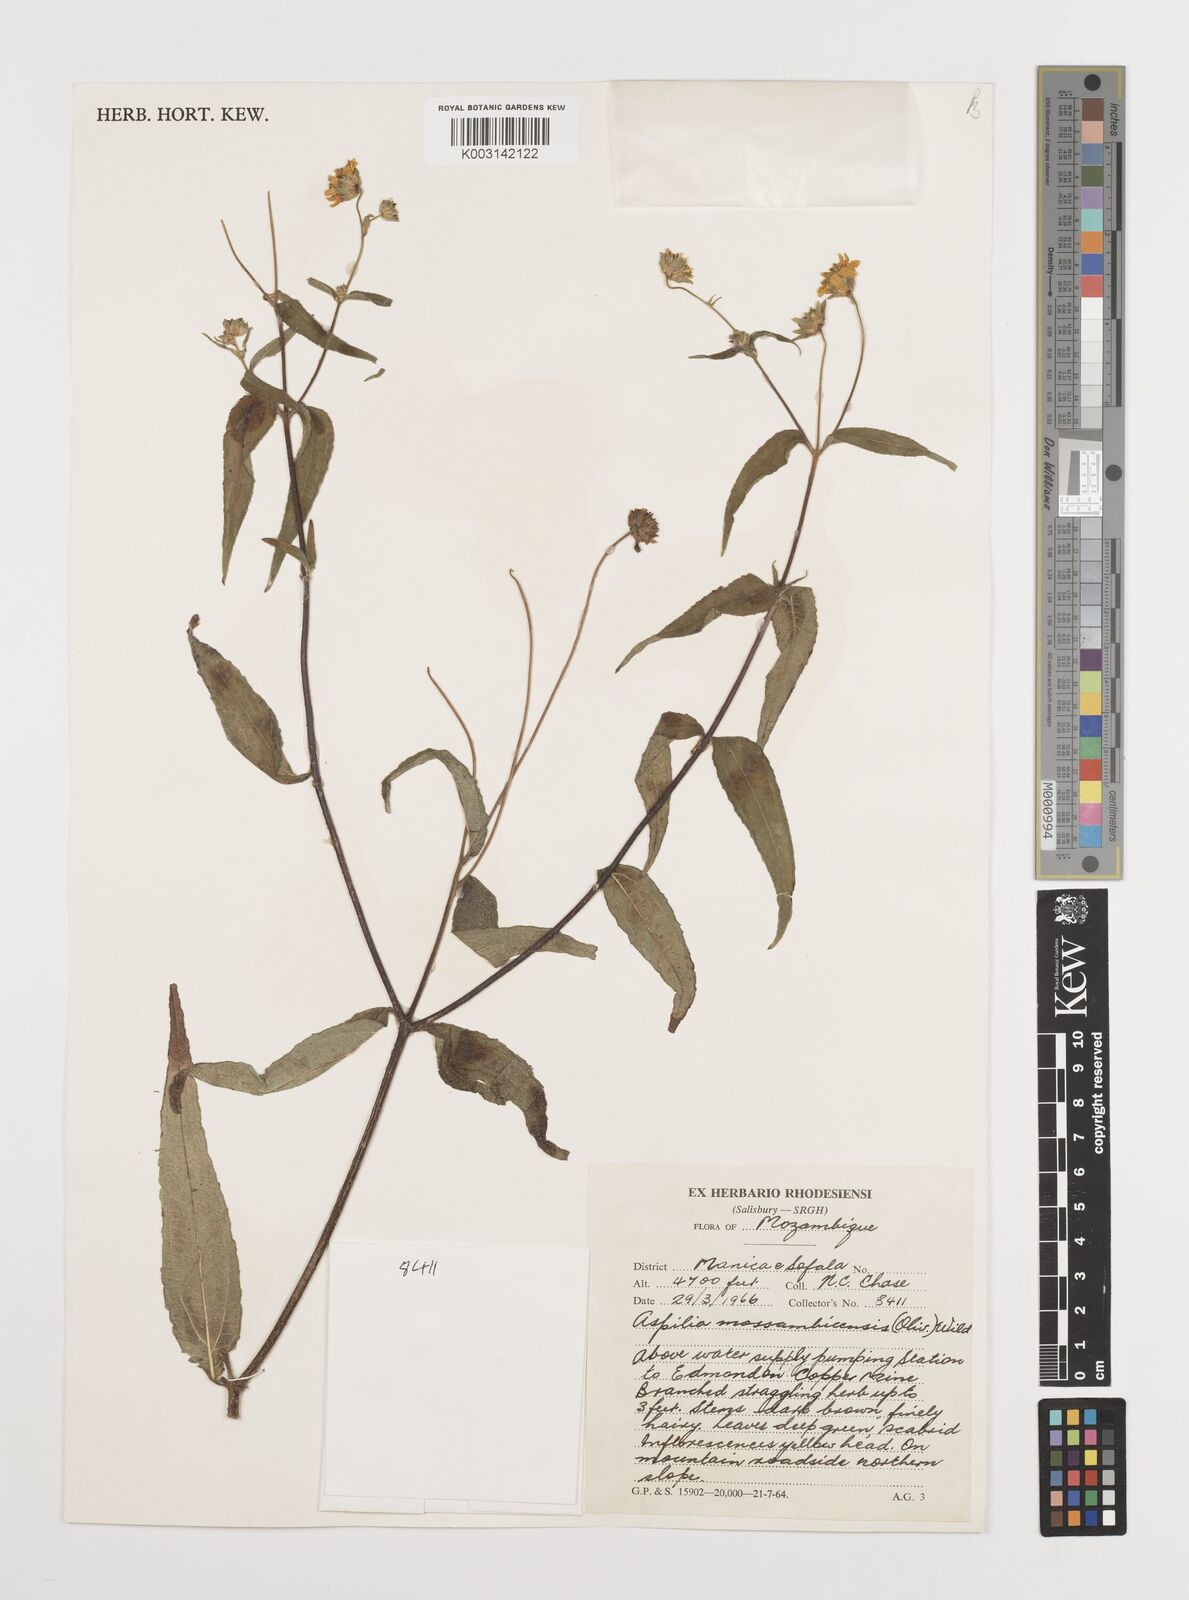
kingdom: Plantae
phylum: Tracheophyta
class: Magnoliopsida
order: Asterales
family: Asteraceae
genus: Aspilia
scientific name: Aspilia mossambicensis
